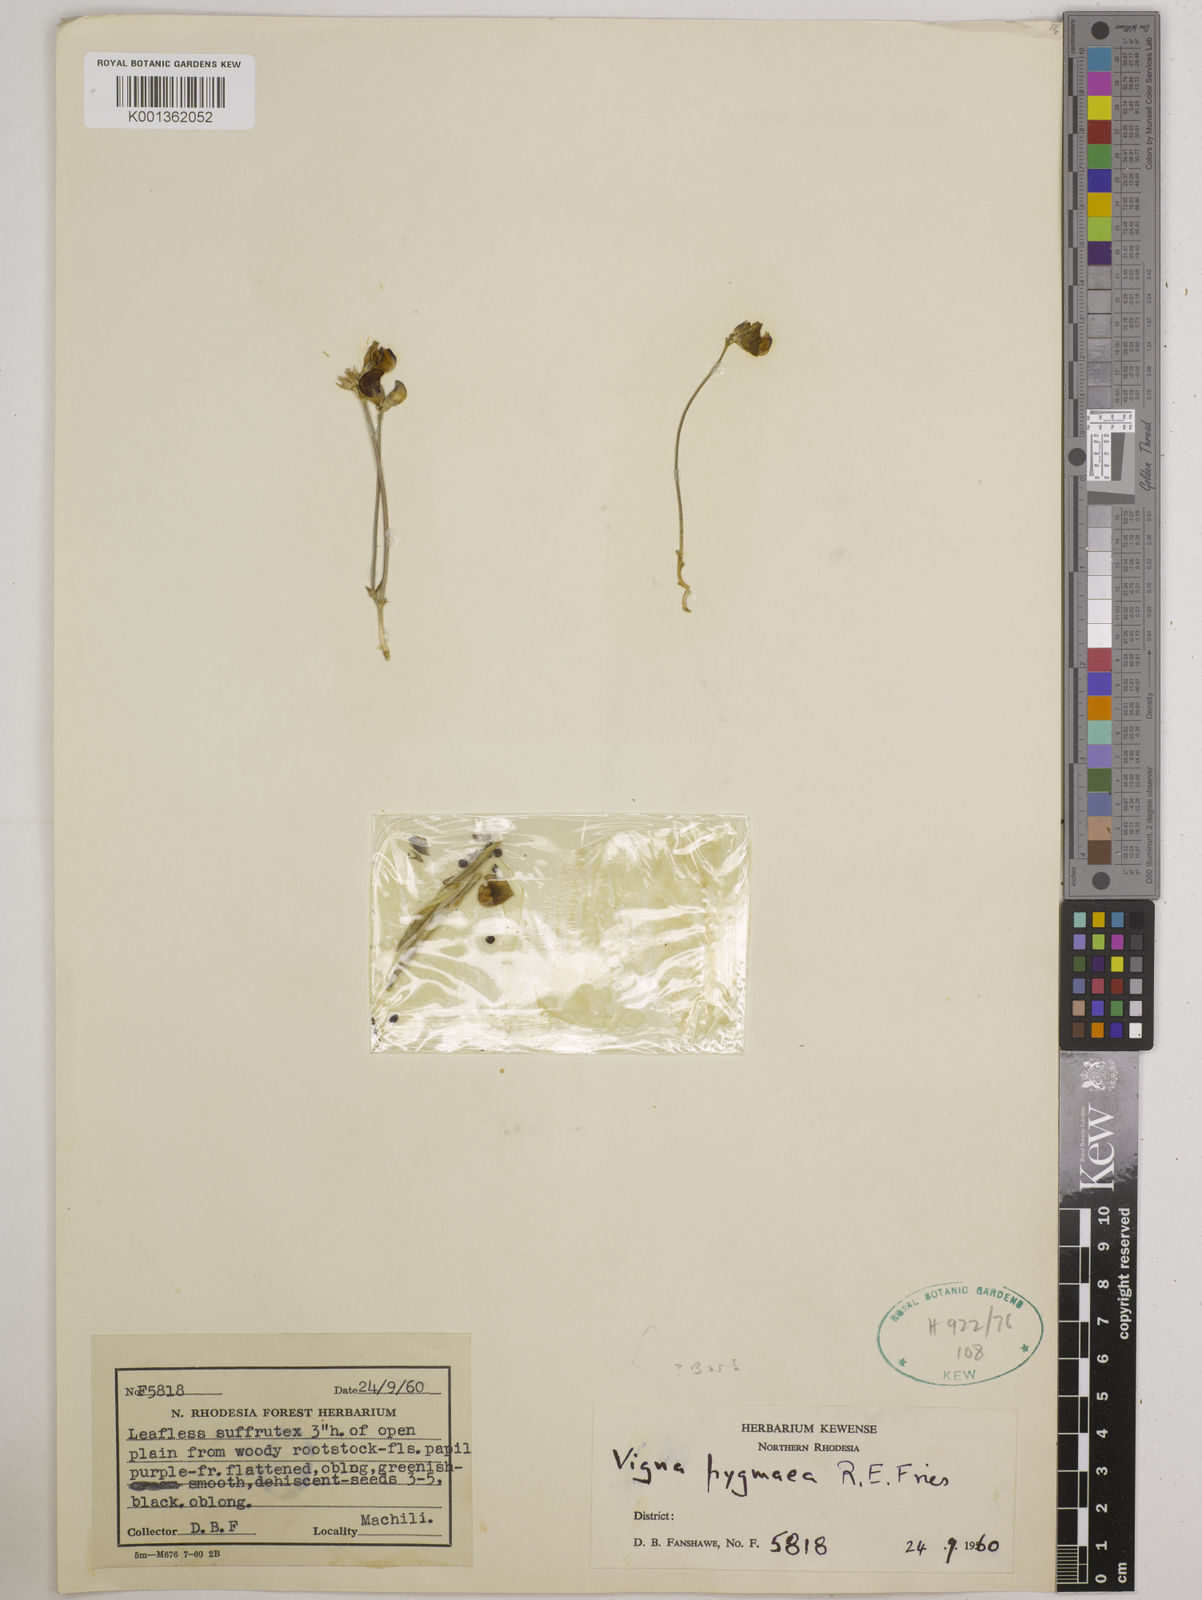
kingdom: Plantae
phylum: Tracheophyta
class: Magnoliopsida
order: Fabales
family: Fabaceae
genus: Vigna
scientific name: Vigna pygmaea
